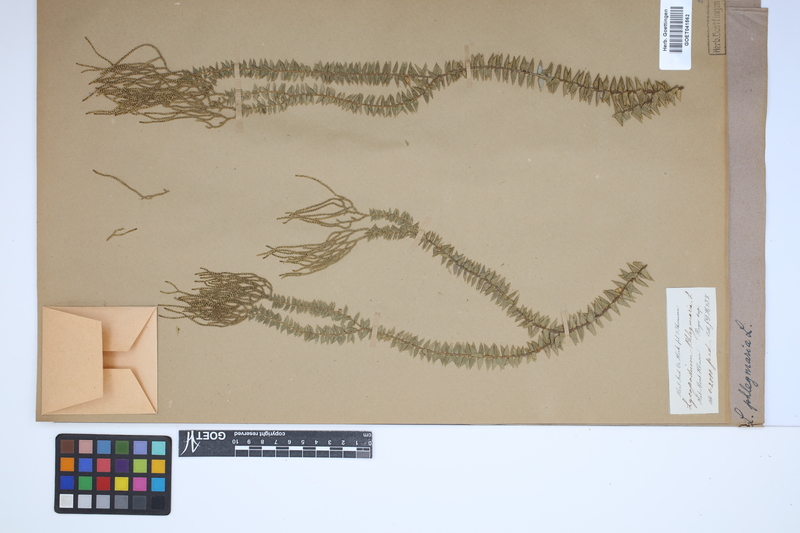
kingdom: Plantae
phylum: Tracheophyta
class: Lycopodiopsida
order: Lycopodiales
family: Lycopodiaceae
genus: Phlegmariurus
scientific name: Phlegmariurus phlegmaria
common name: Coarse tassel-fern
